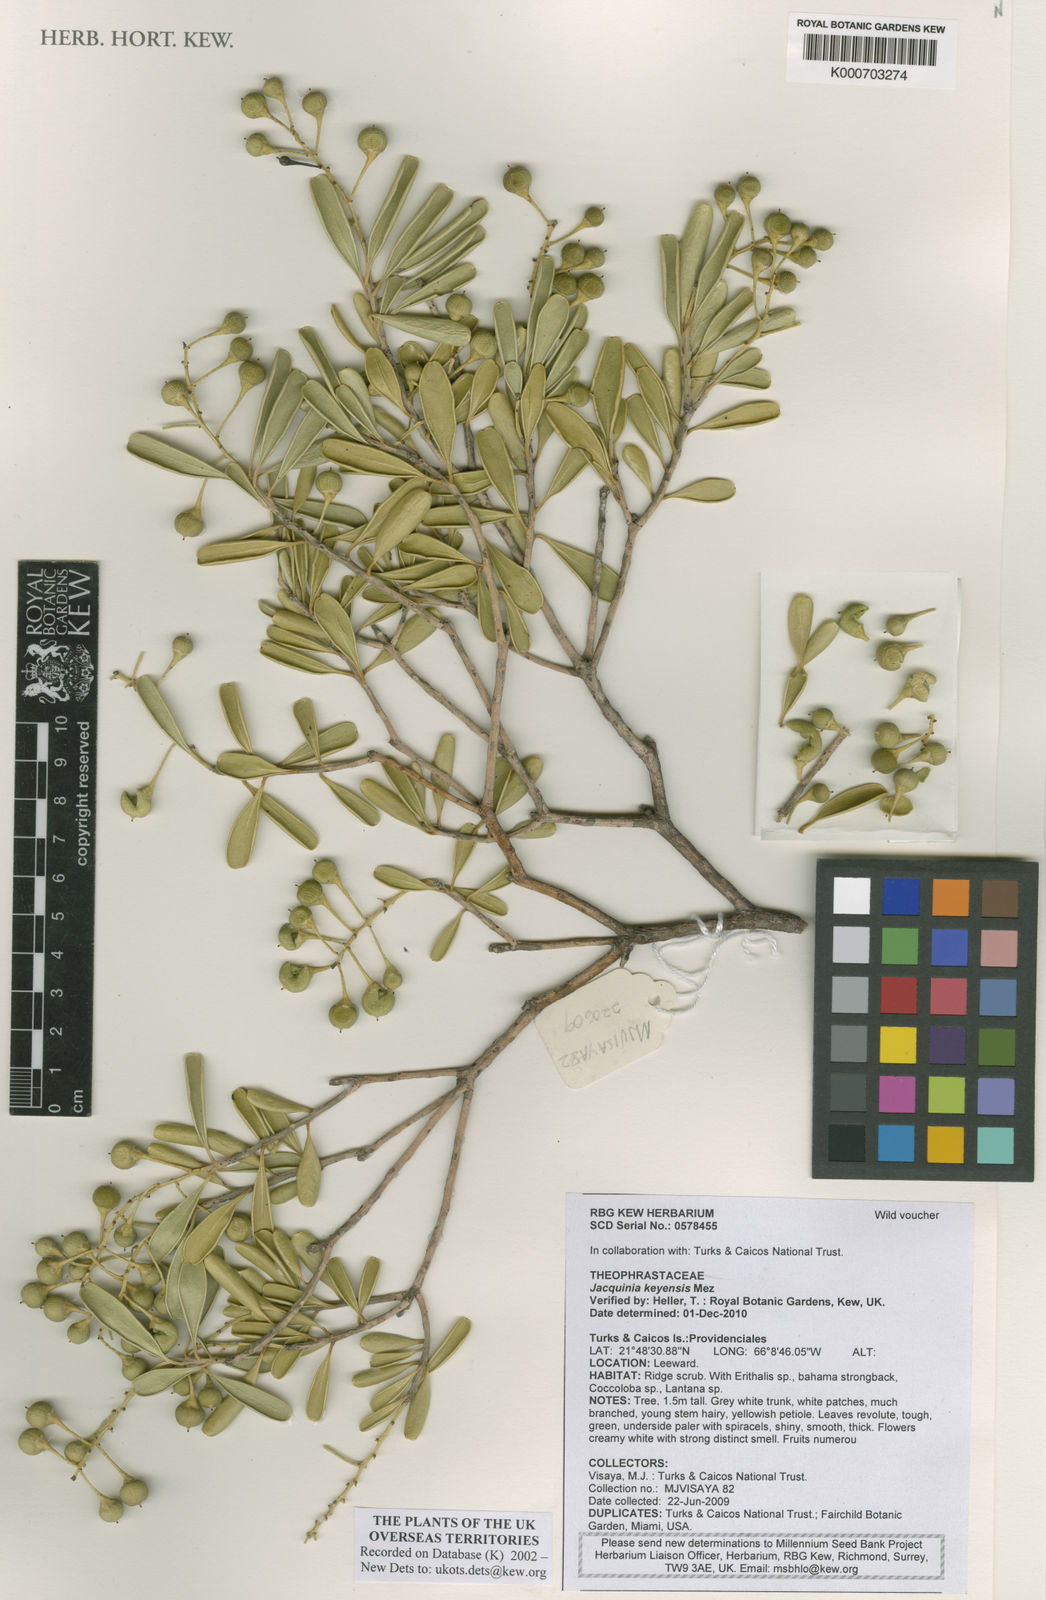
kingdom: Plantae
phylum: Tracheophyta
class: Magnoliopsida
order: Ericales
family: Primulaceae
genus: Jacquinia
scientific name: Jacquinia keyensis
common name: Joebush
